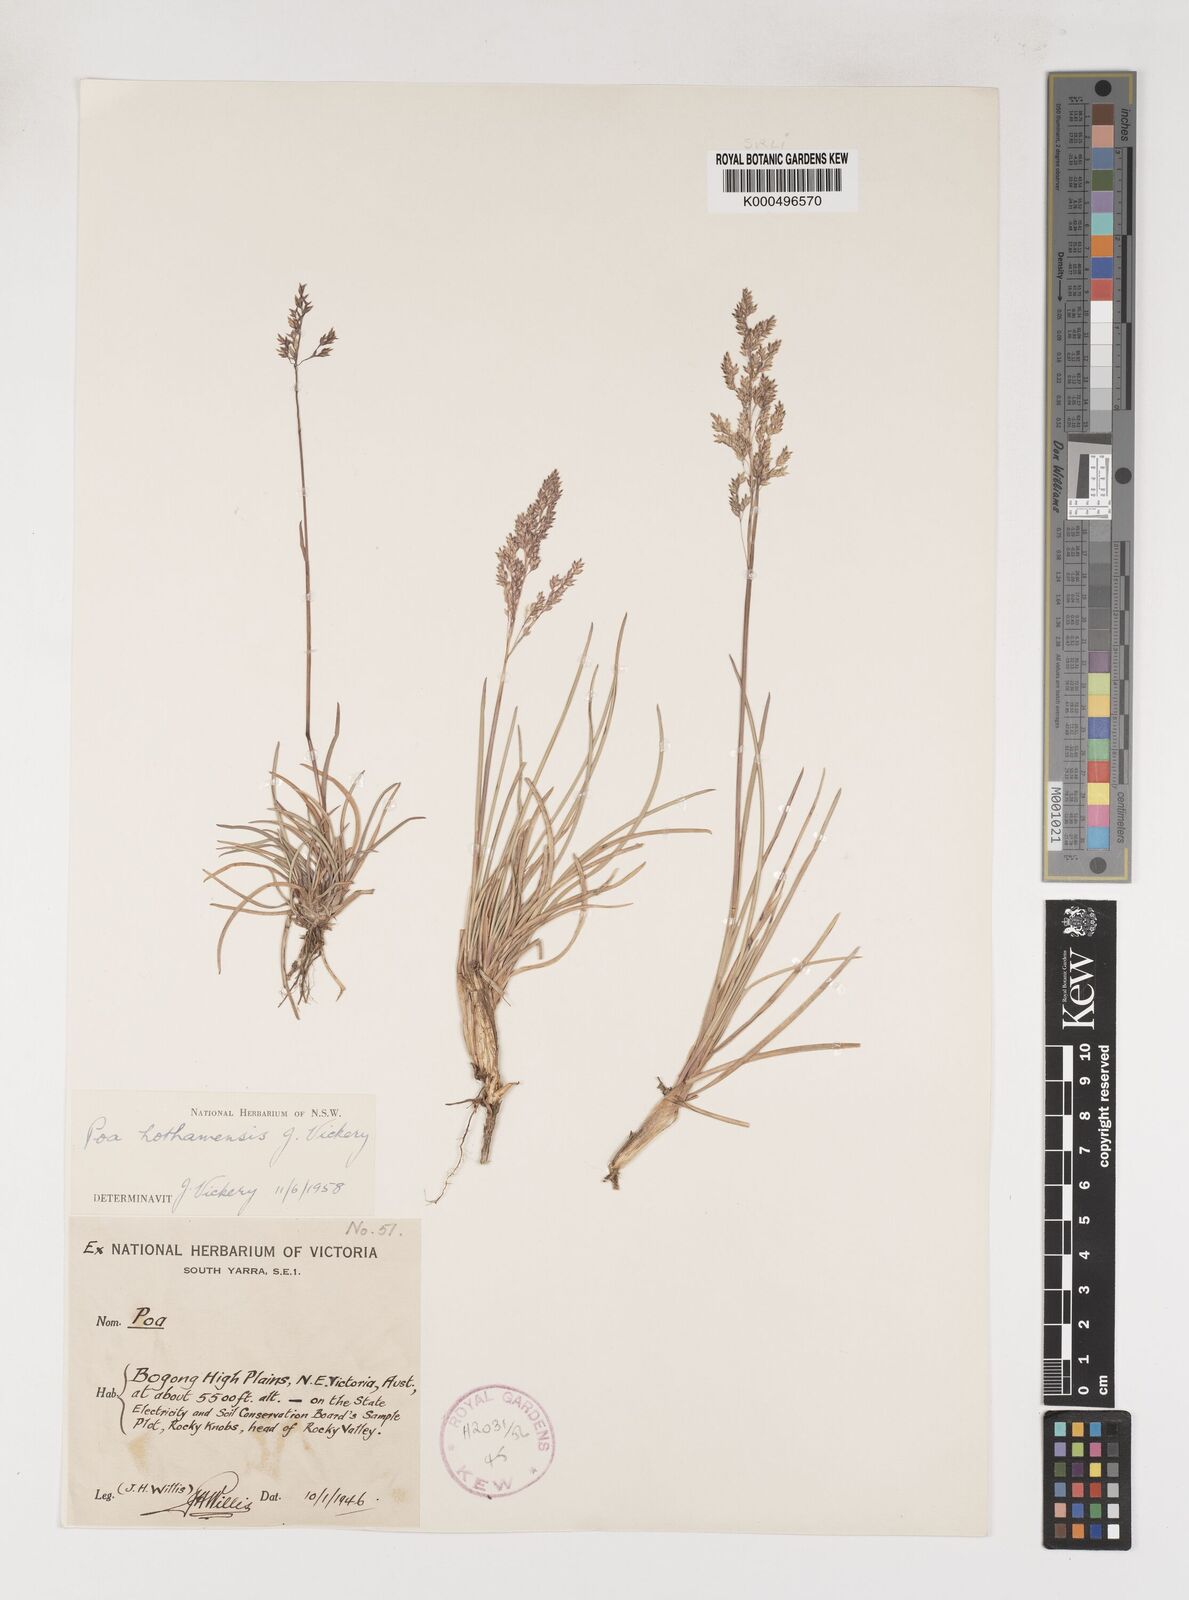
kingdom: Plantae
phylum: Tracheophyta
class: Liliopsida
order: Poales
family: Poaceae
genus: Poa
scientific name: Poa hothamensis
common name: Ledge grass
